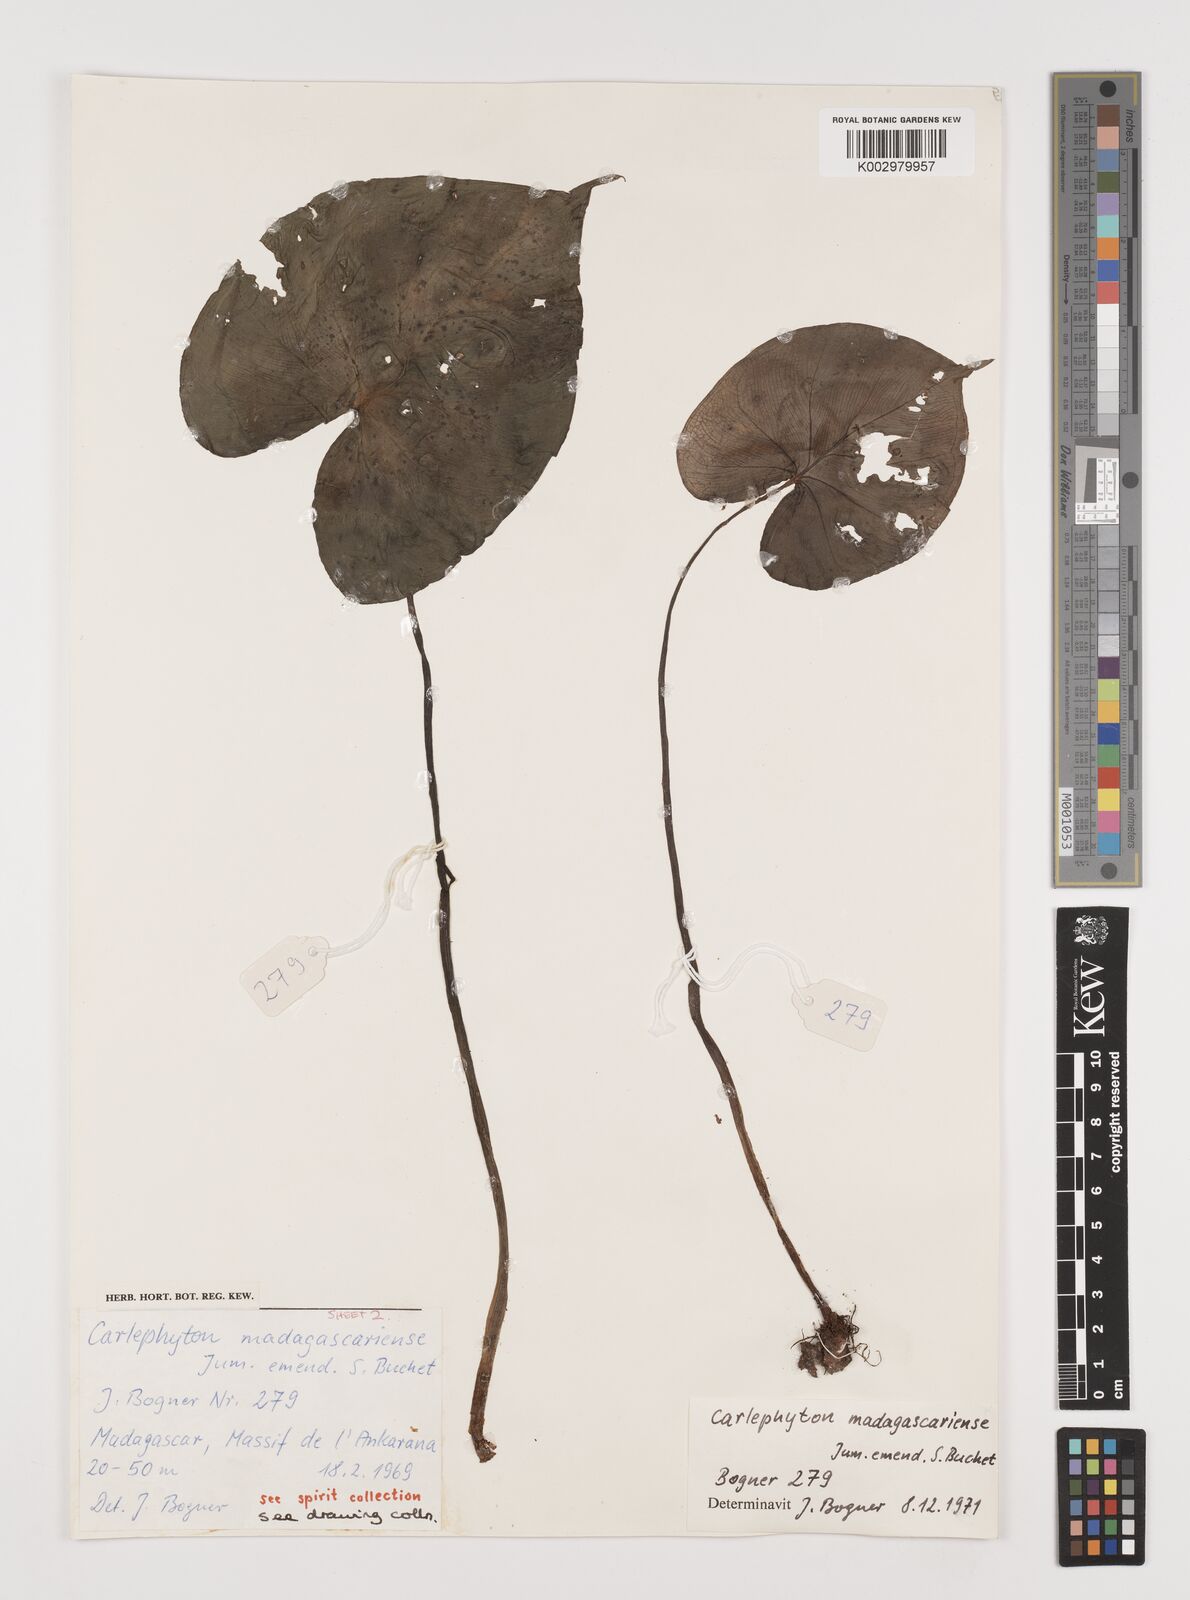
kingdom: Plantae
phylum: Tracheophyta
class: Liliopsida
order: Alismatales
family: Araceae
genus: Carlephyton
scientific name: Carlephyton madagascariense
